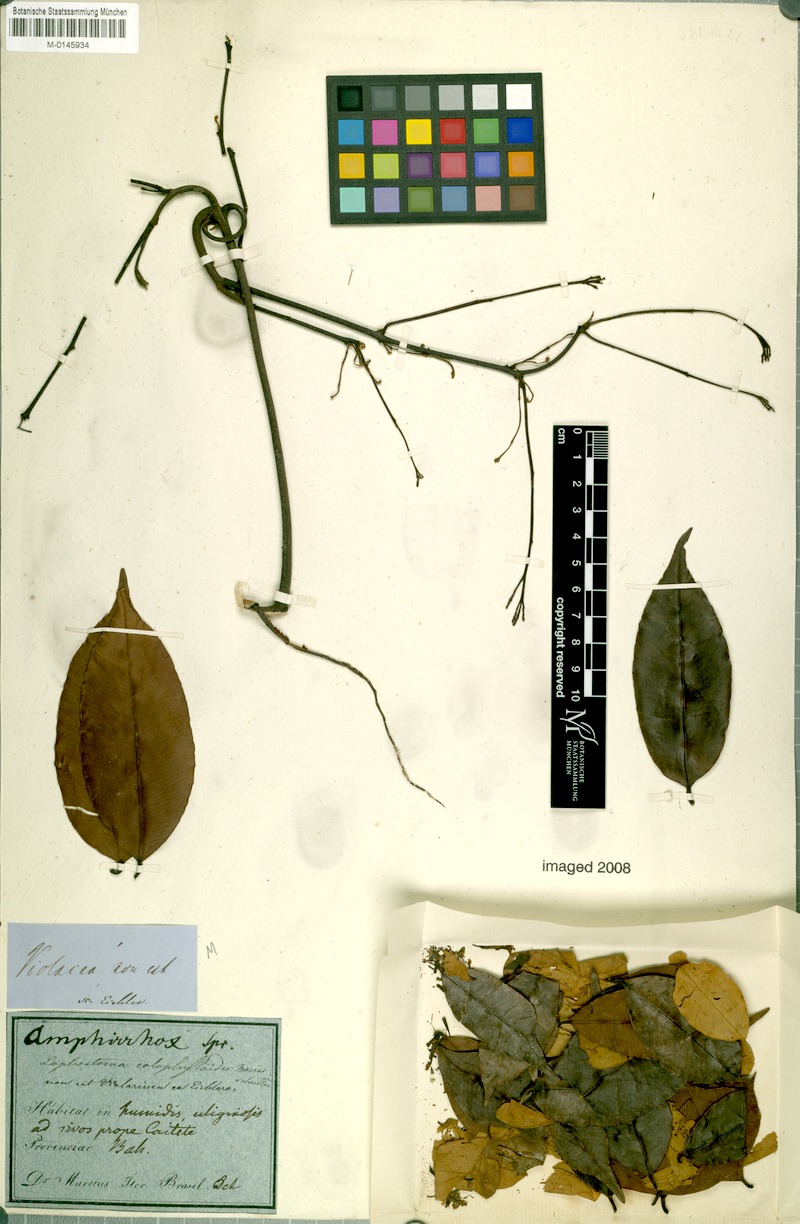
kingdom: Plantae
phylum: Tracheophyta
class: Magnoliopsida
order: Malvales
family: Thymelaeaceae
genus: Lophostoma
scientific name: Lophostoma calophylloides
